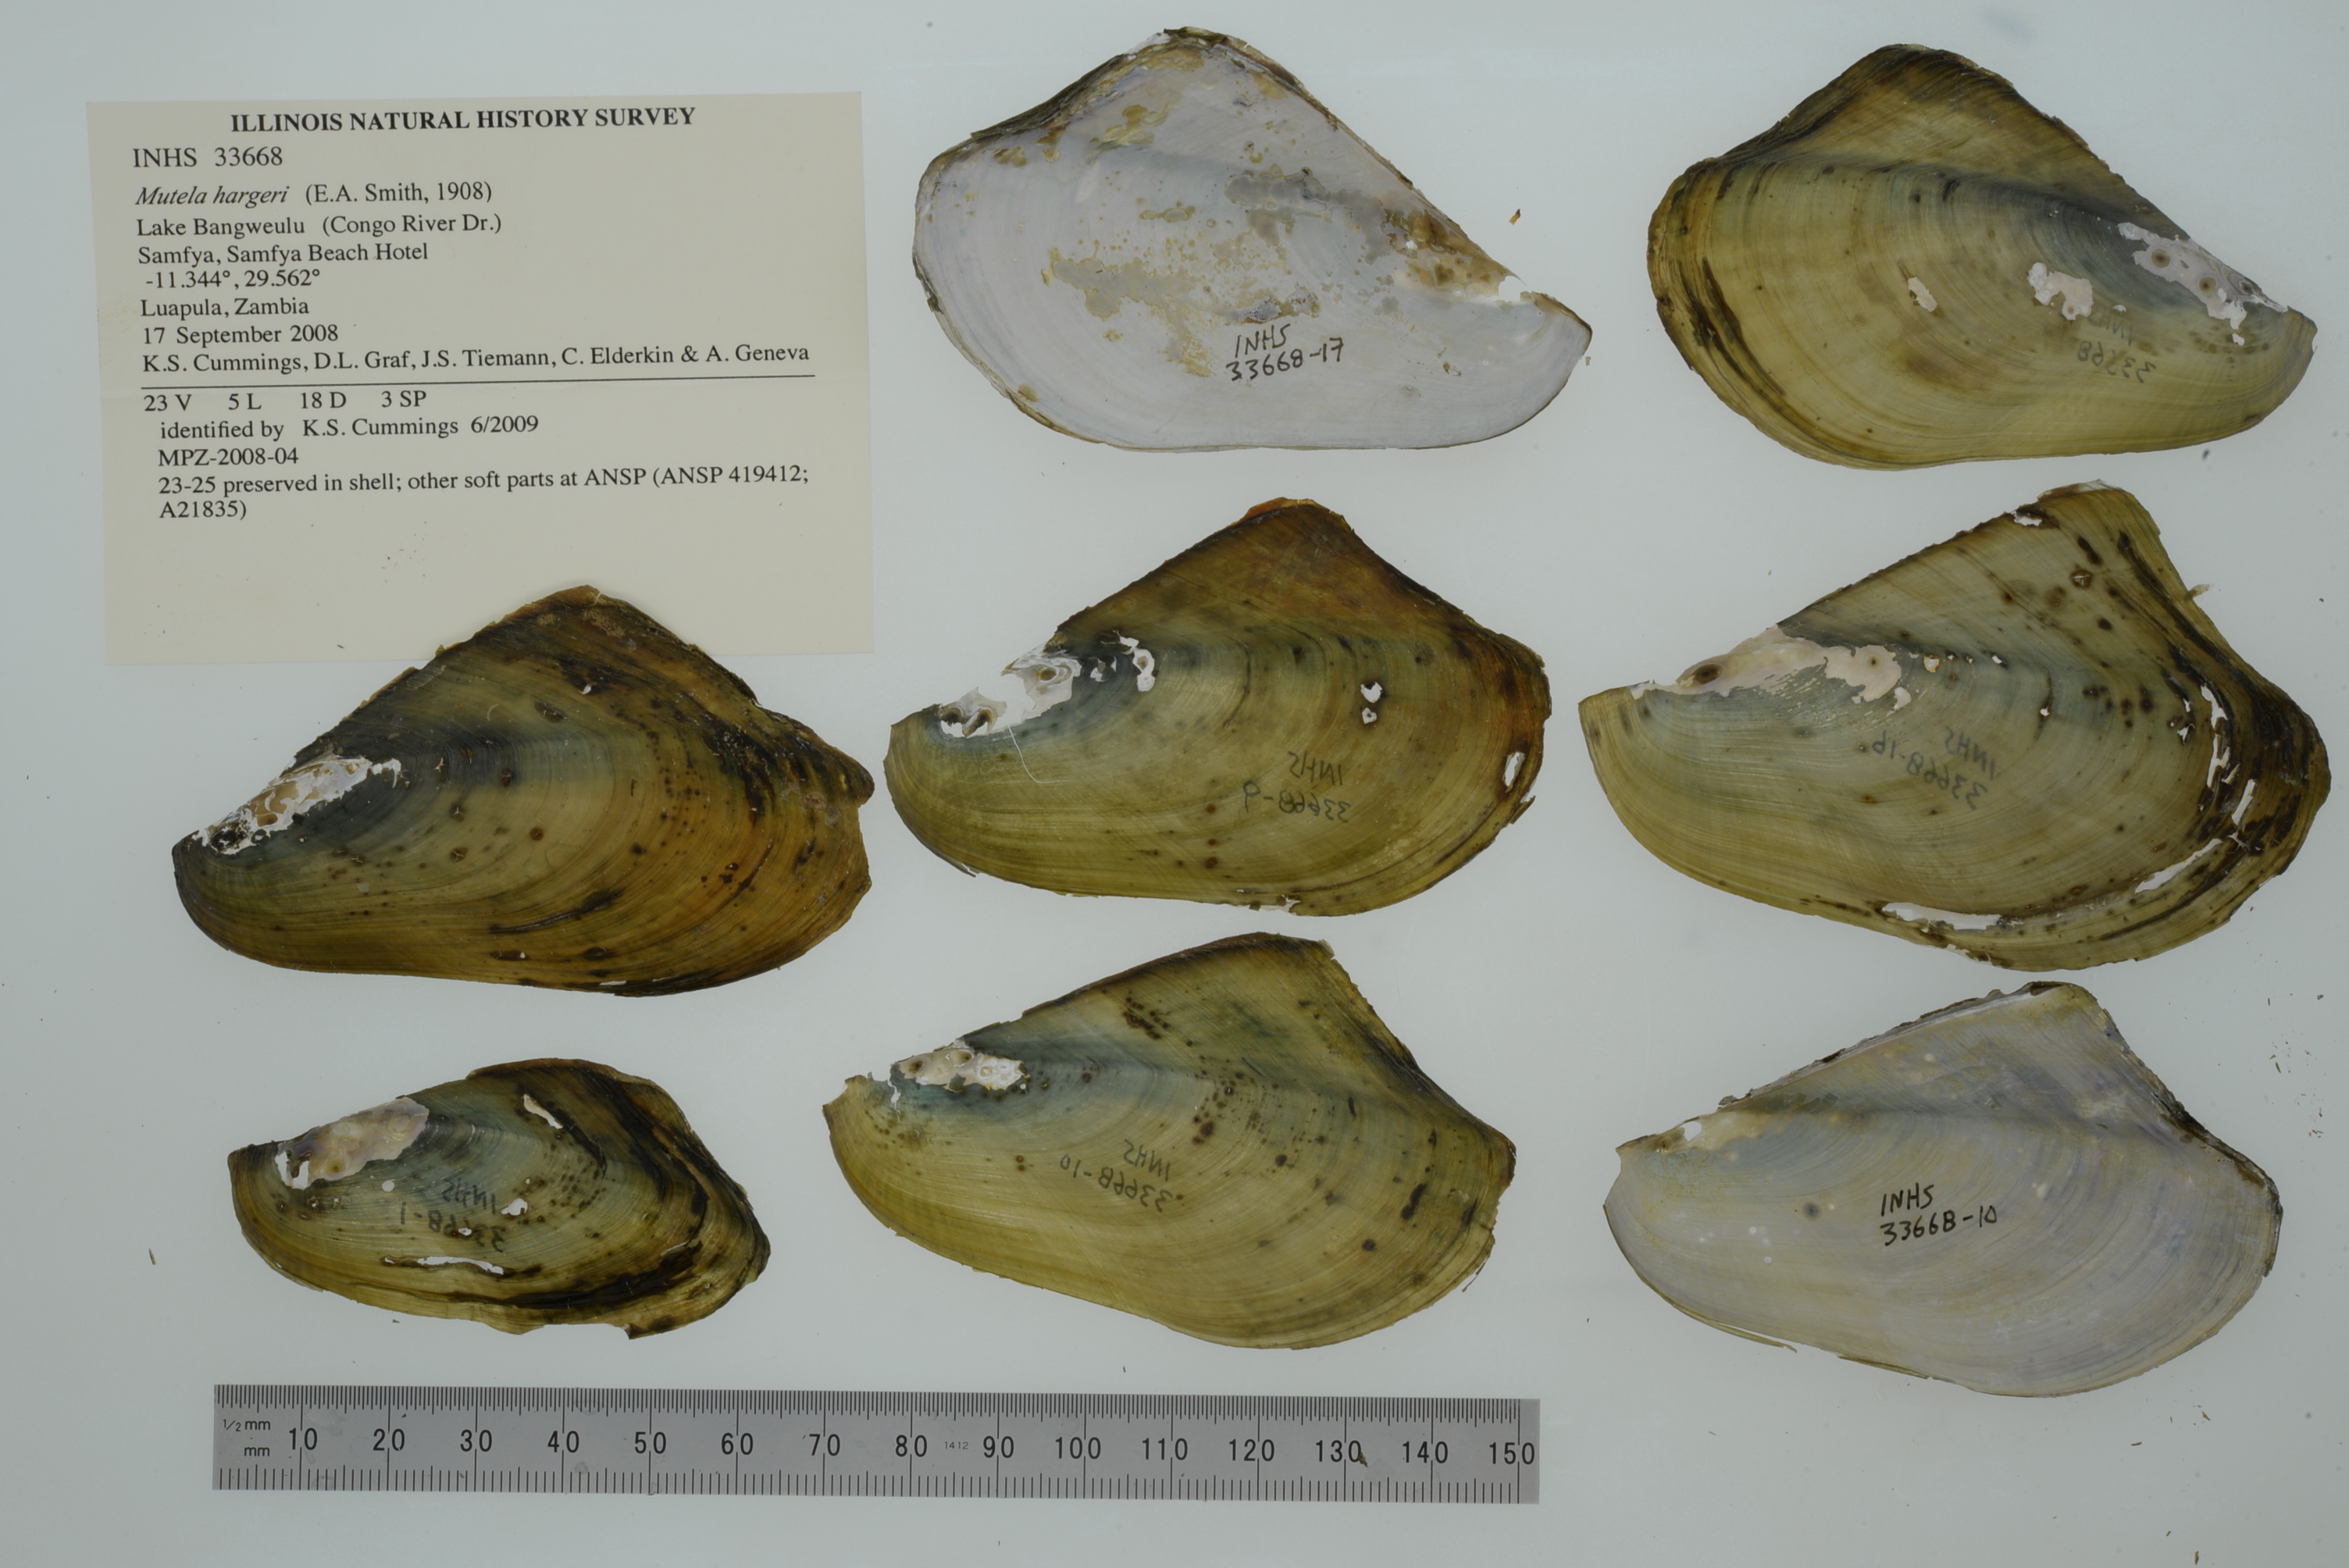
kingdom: Animalia
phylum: Mollusca
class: Bivalvia
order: Unionida
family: Iridinidae
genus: Mutela
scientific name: Mutela hargeri
